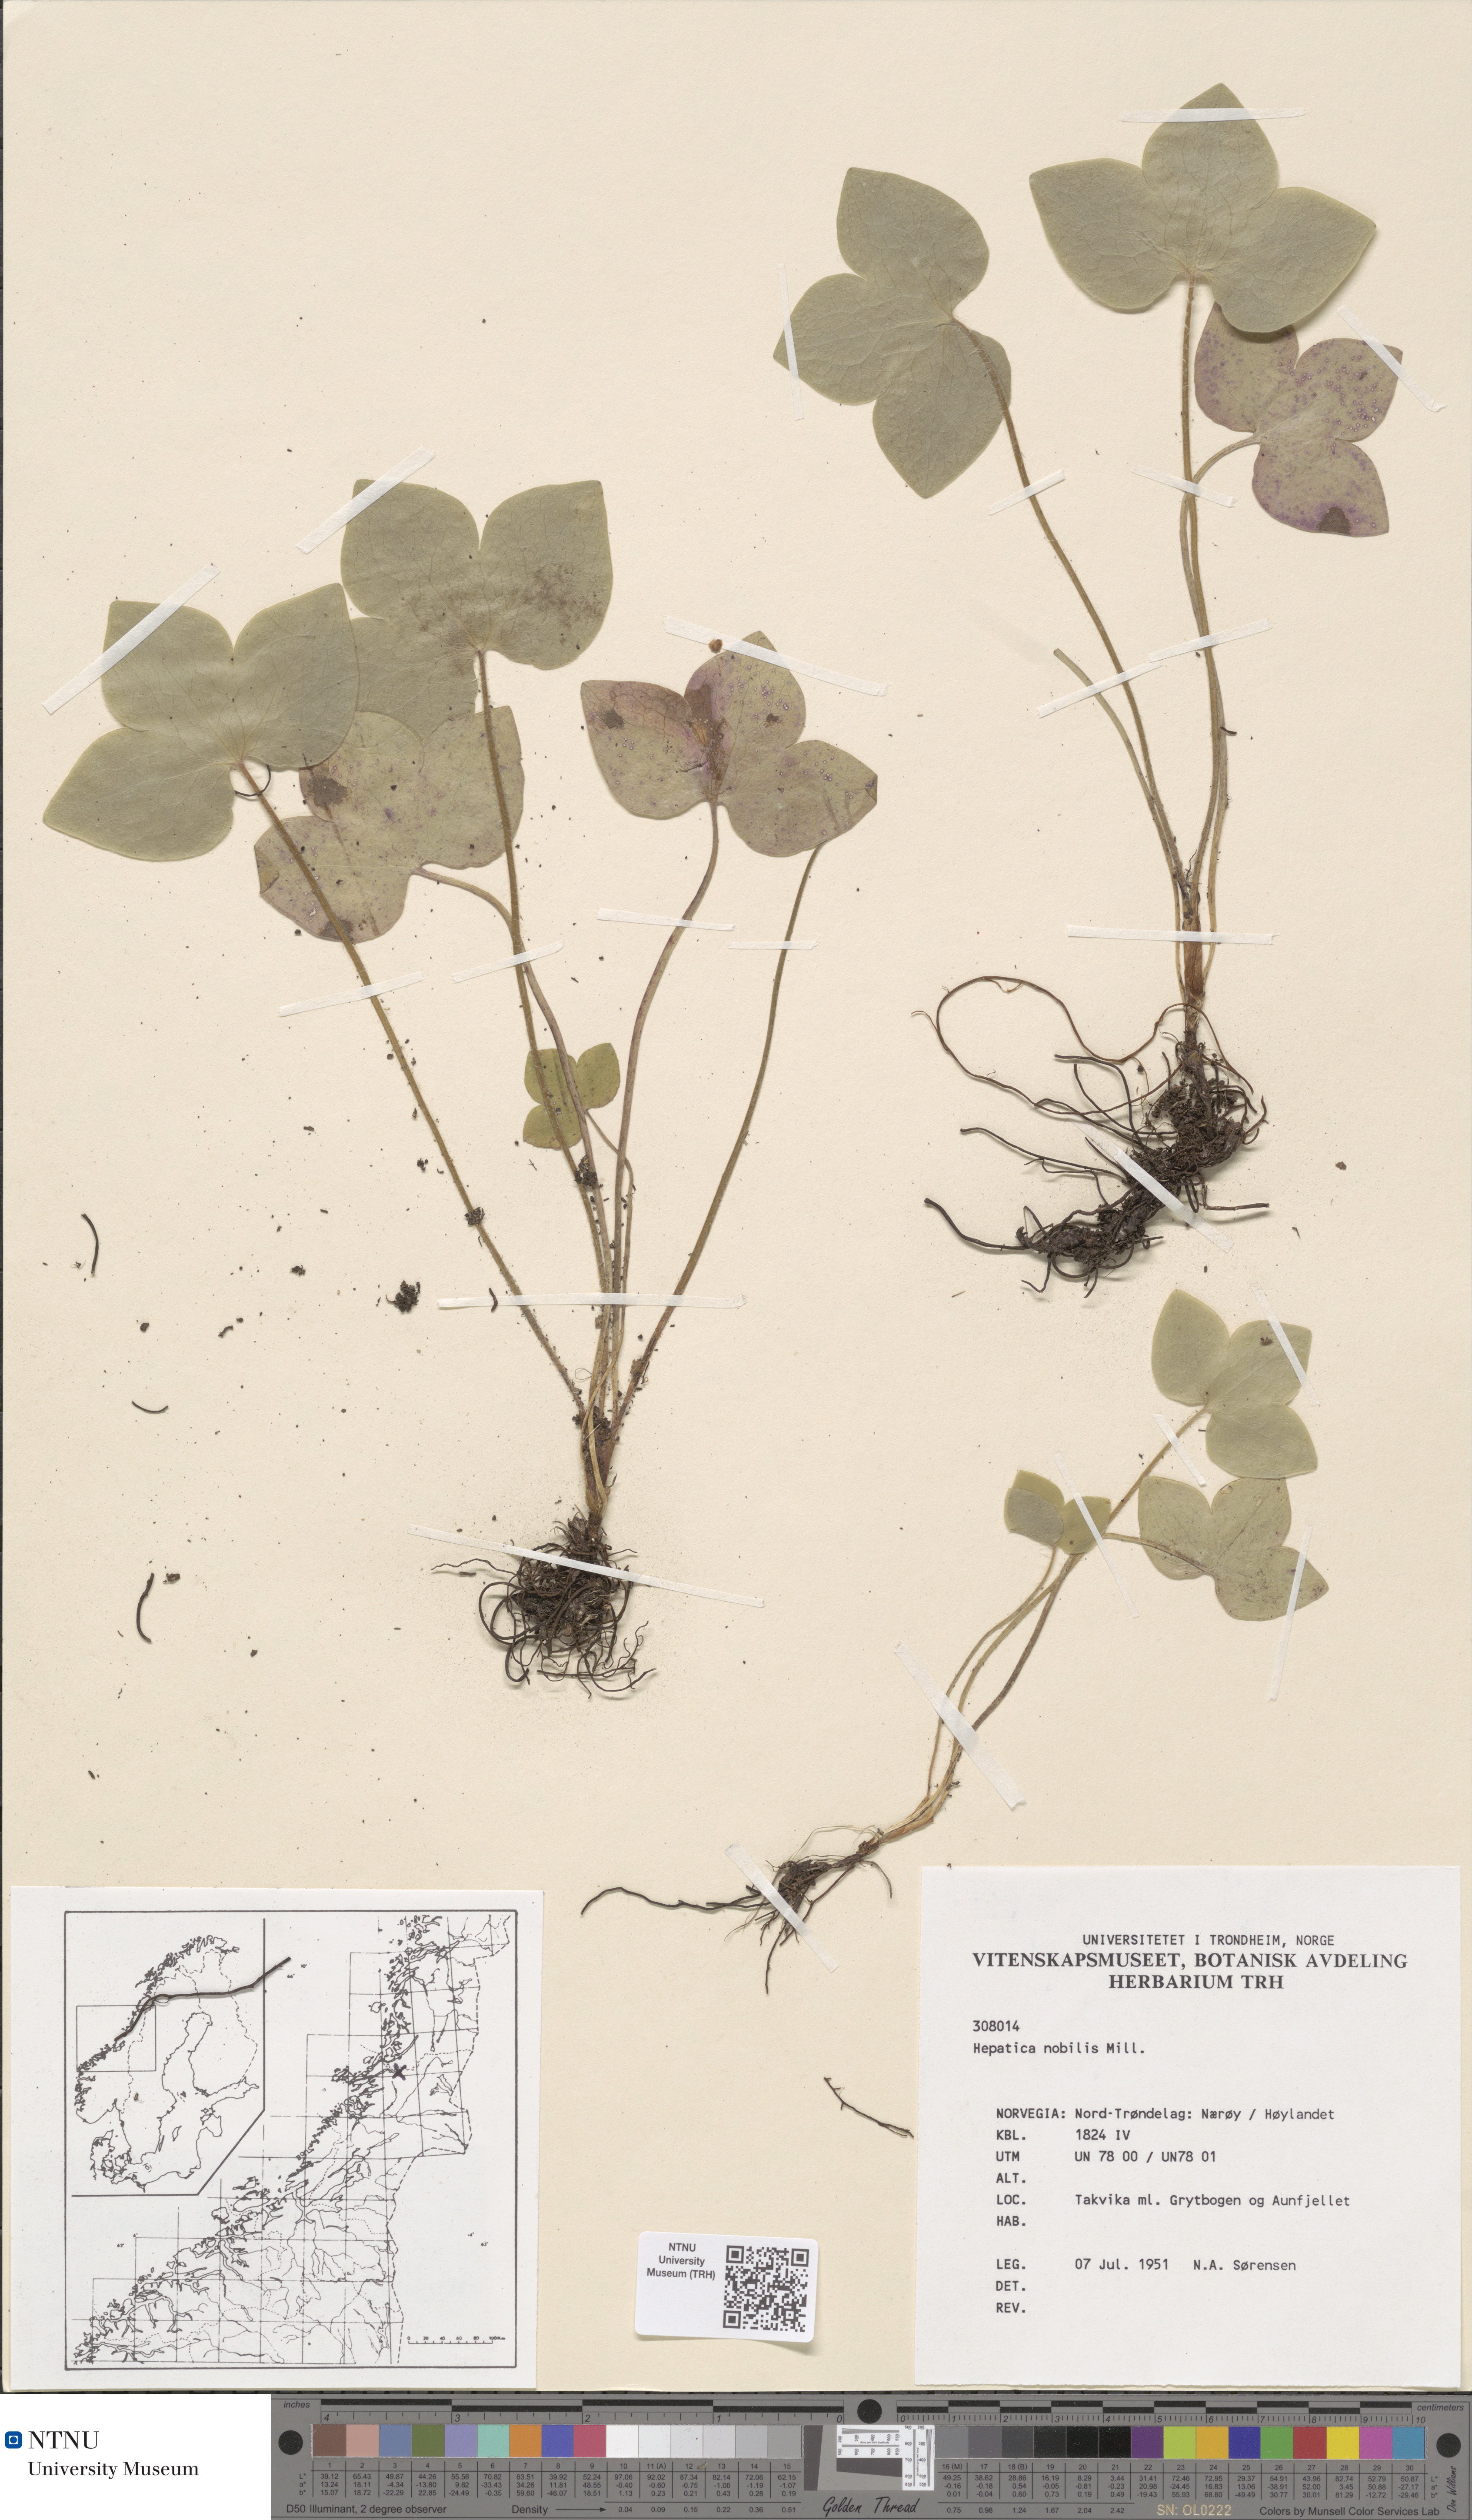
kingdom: Plantae
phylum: Tracheophyta
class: Magnoliopsida
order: Ranunculales
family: Ranunculaceae
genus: Hepatica
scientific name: Hepatica nobilis
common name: Liverleaf
